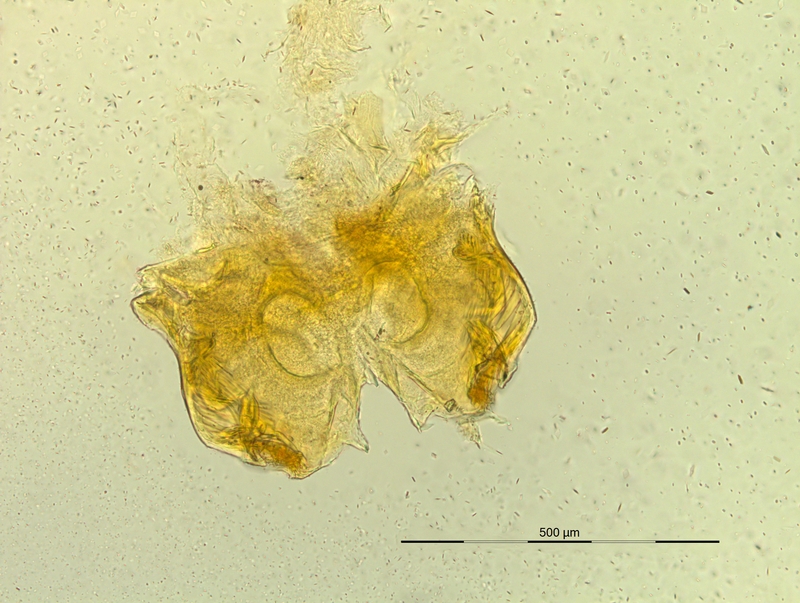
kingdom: Animalia
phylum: Arthropoda
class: Diplopoda
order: Chordeumatida
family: Craspedosomatidae
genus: Pyrgocyphosoma
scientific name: Pyrgocyphosoma roccavionense
